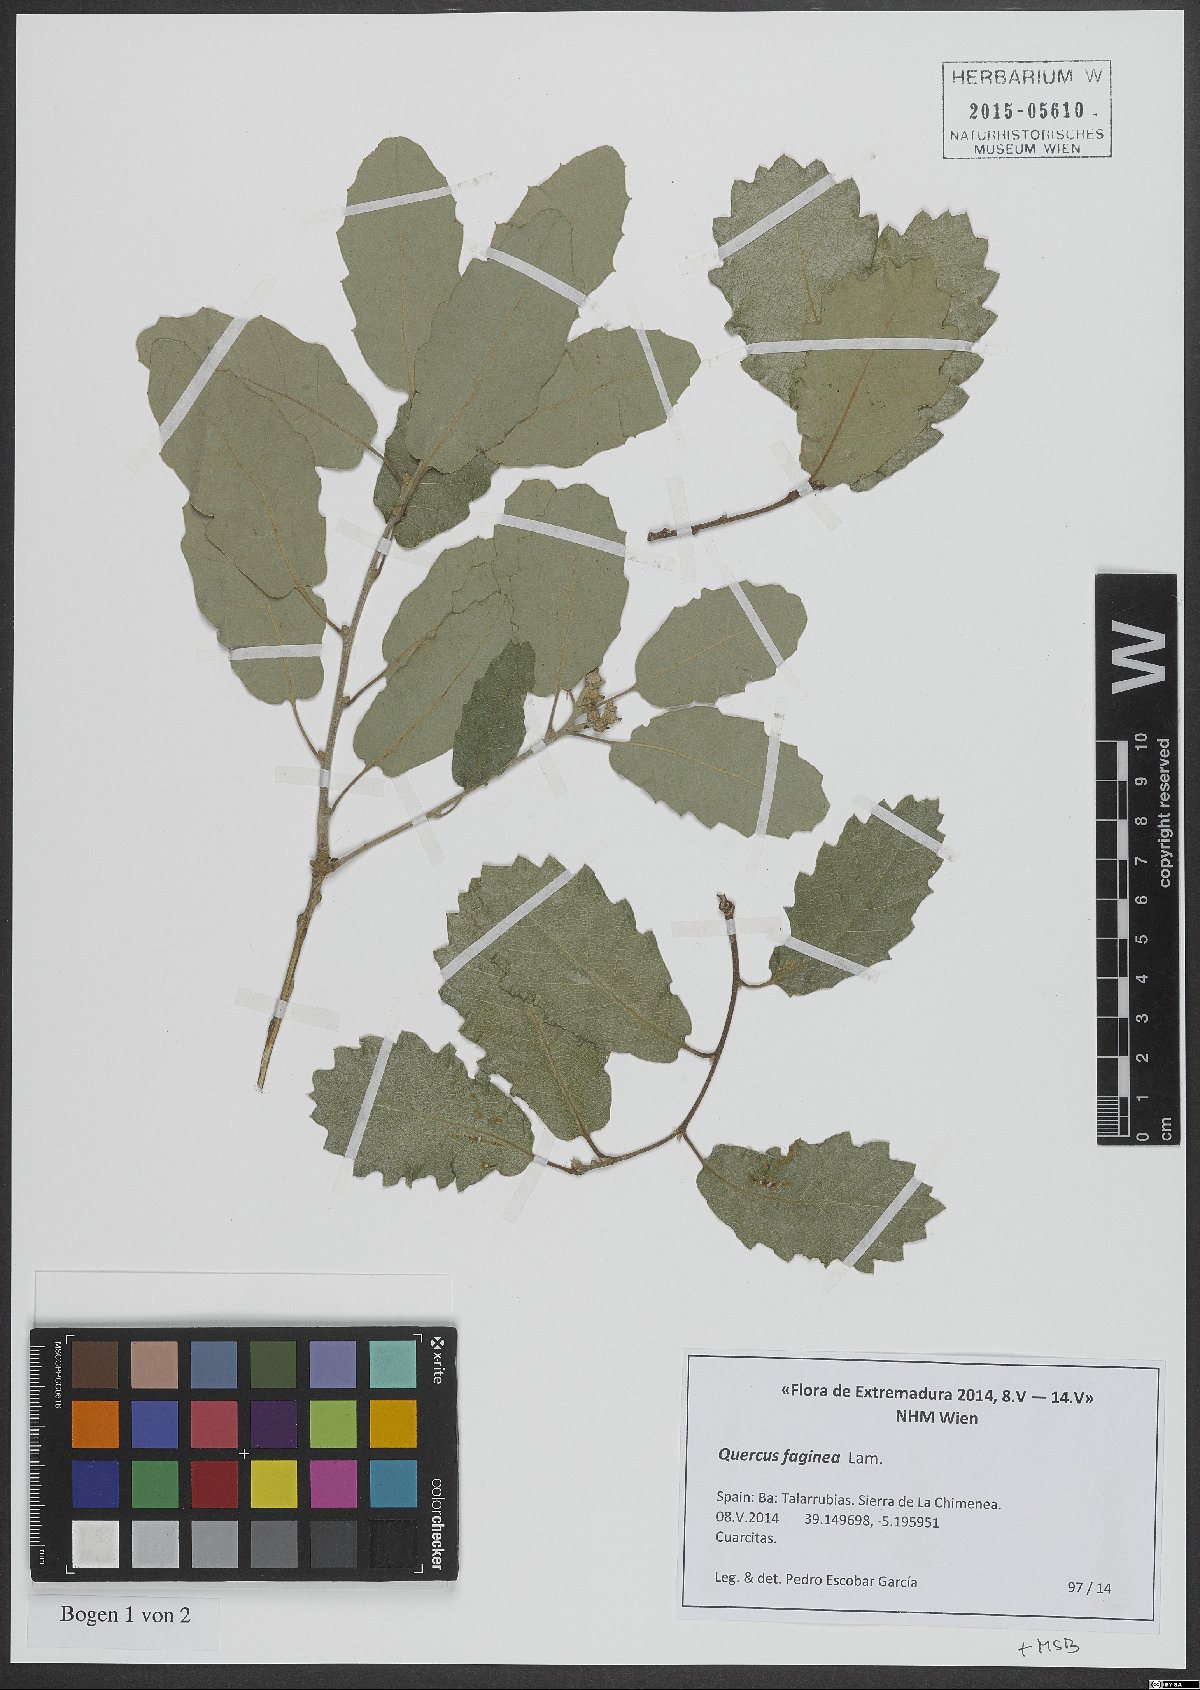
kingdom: Plantae
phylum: Tracheophyta
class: Magnoliopsida
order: Fagales
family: Fagaceae
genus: Quercus
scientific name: Quercus faginea
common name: Gall oak tree
